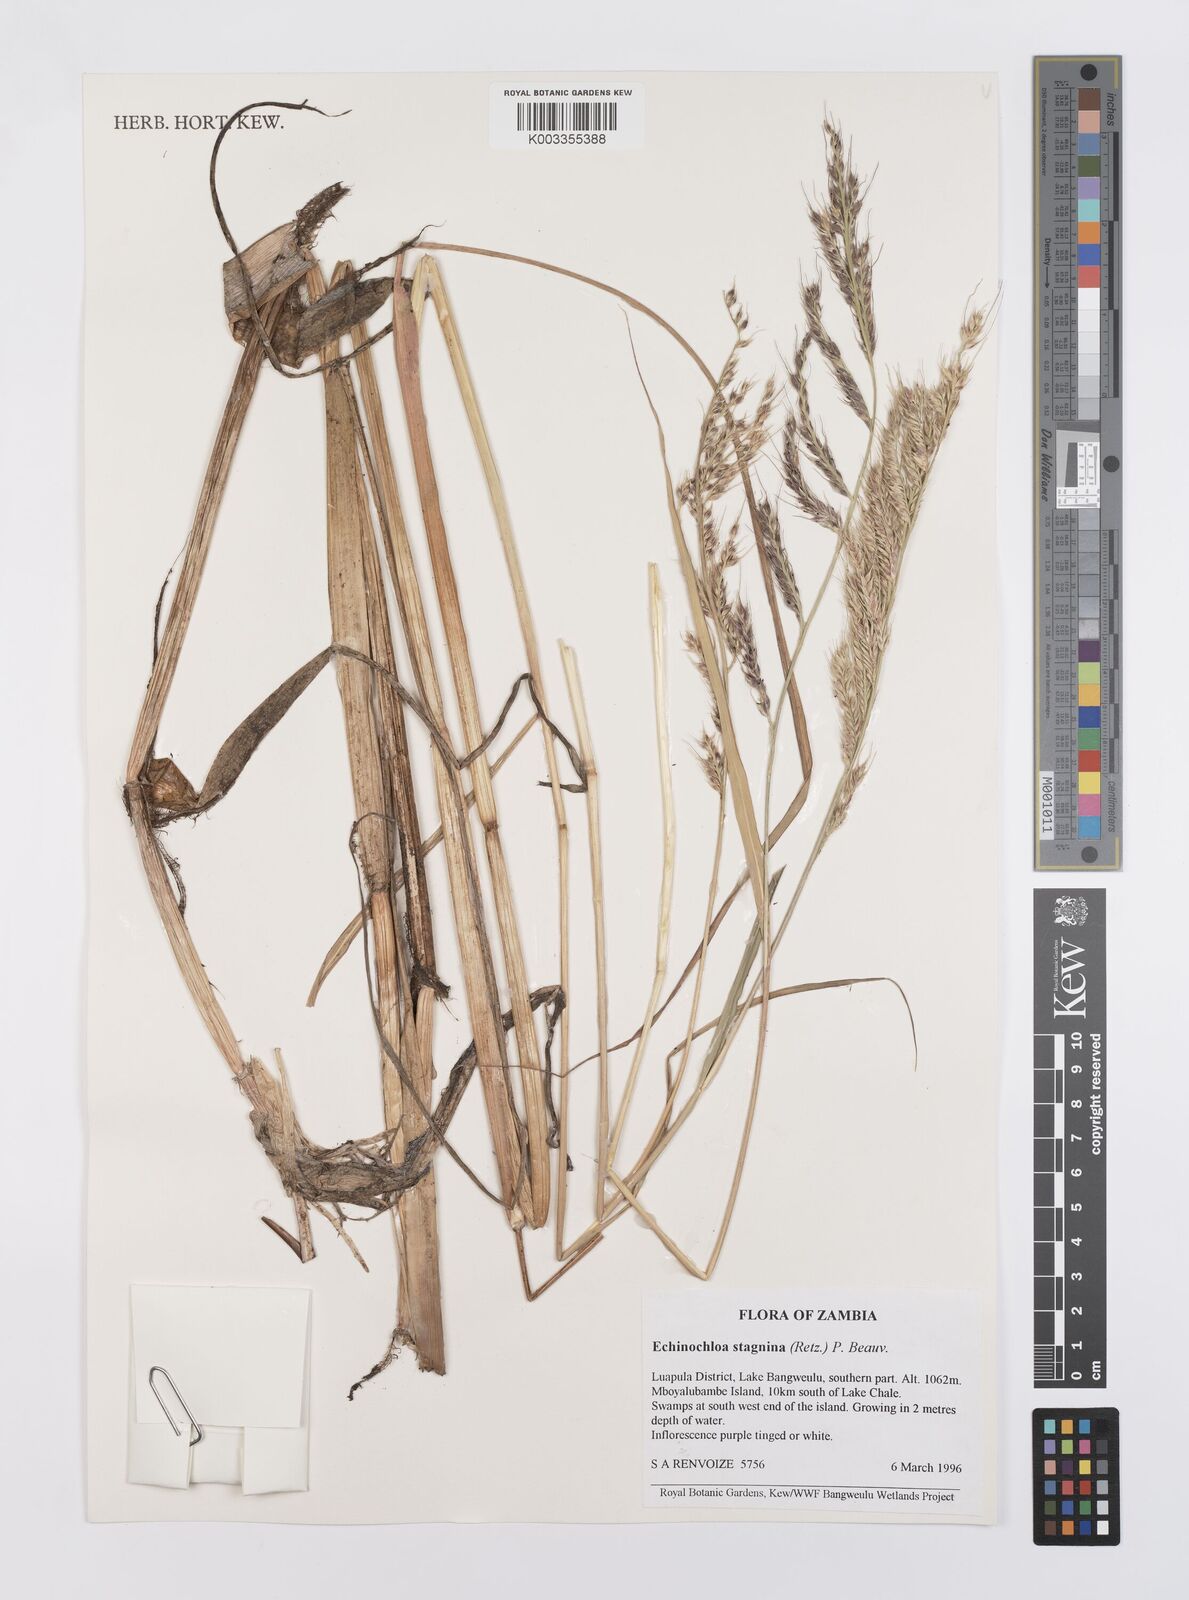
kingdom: Plantae
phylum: Tracheophyta
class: Liliopsida
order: Poales
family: Poaceae
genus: Echinochloa
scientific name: Echinochloa stagnina
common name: Burgu grass
